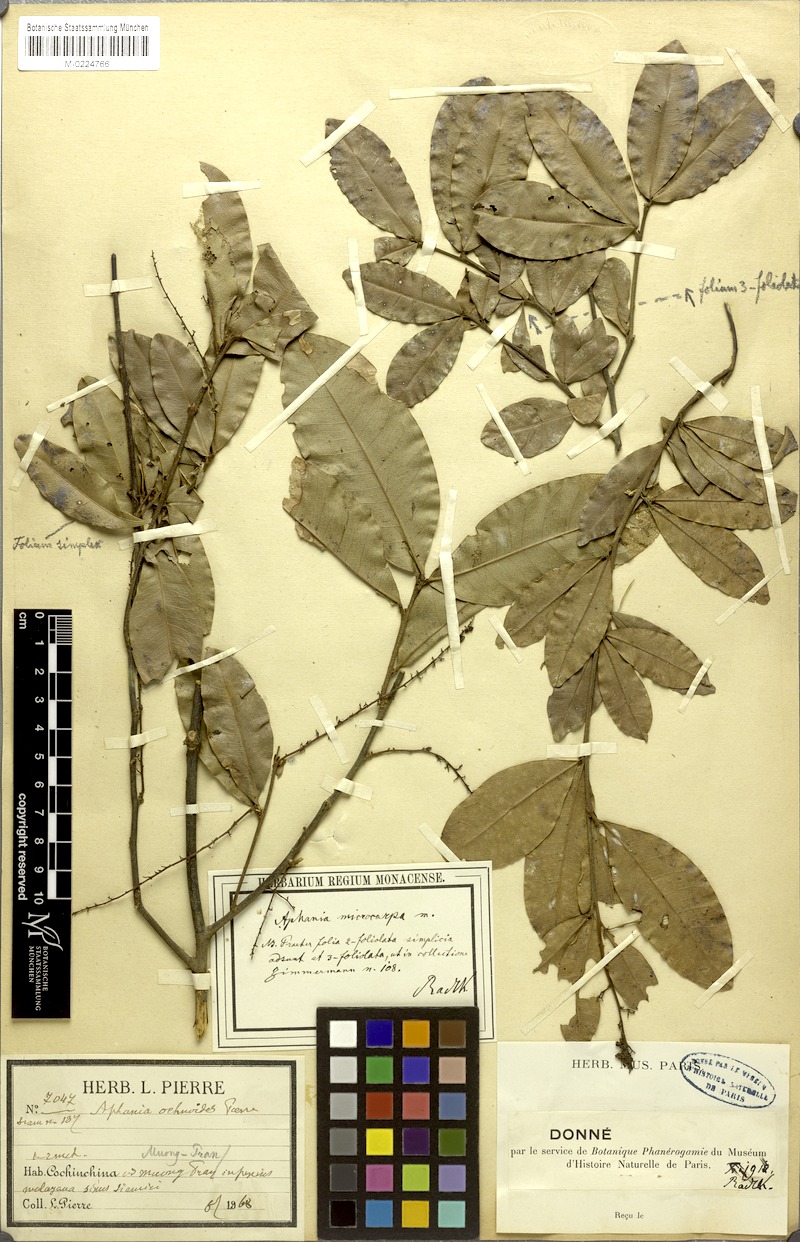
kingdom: Plantae
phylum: Tracheophyta
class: Magnoliopsida
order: Sapindales
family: Sapindaceae
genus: Lepisanthes
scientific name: Lepisanthes senegalensis
